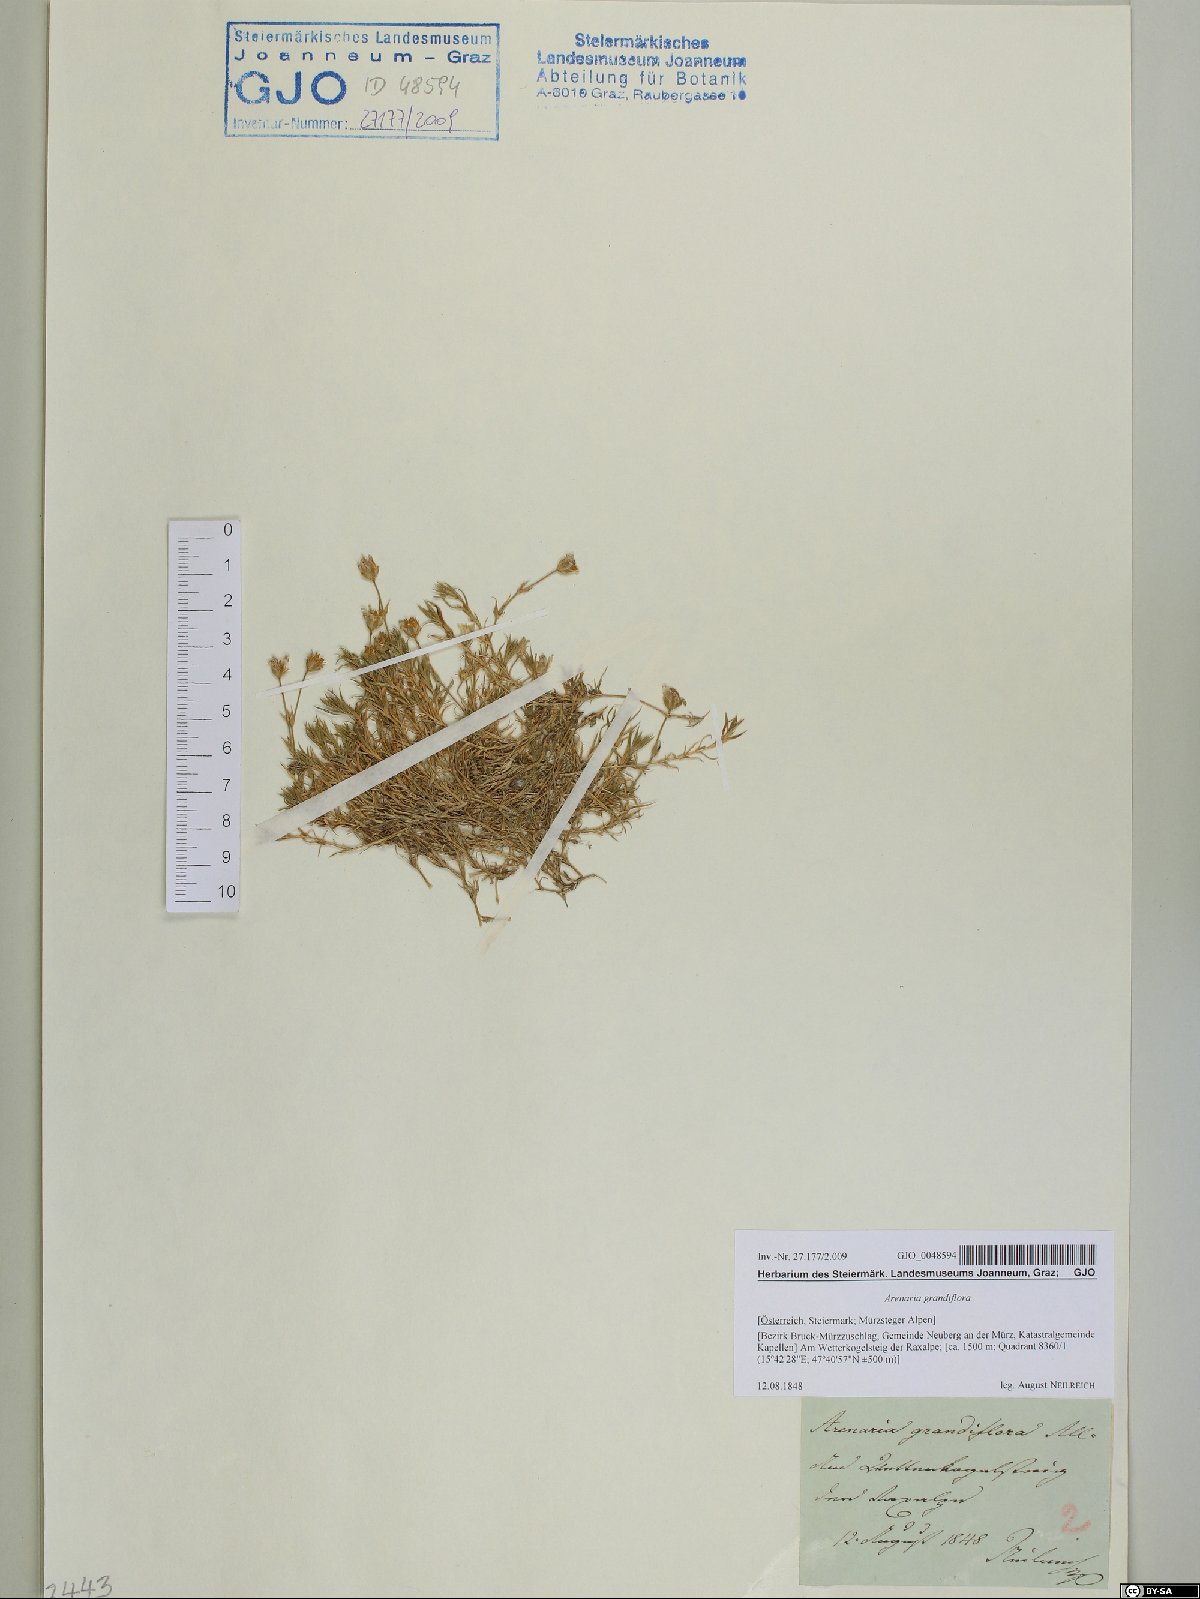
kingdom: Plantae
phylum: Tracheophyta
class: Magnoliopsida
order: Caryophyllales
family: Caryophyllaceae
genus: Arenaria
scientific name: Arenaria grandiflora
